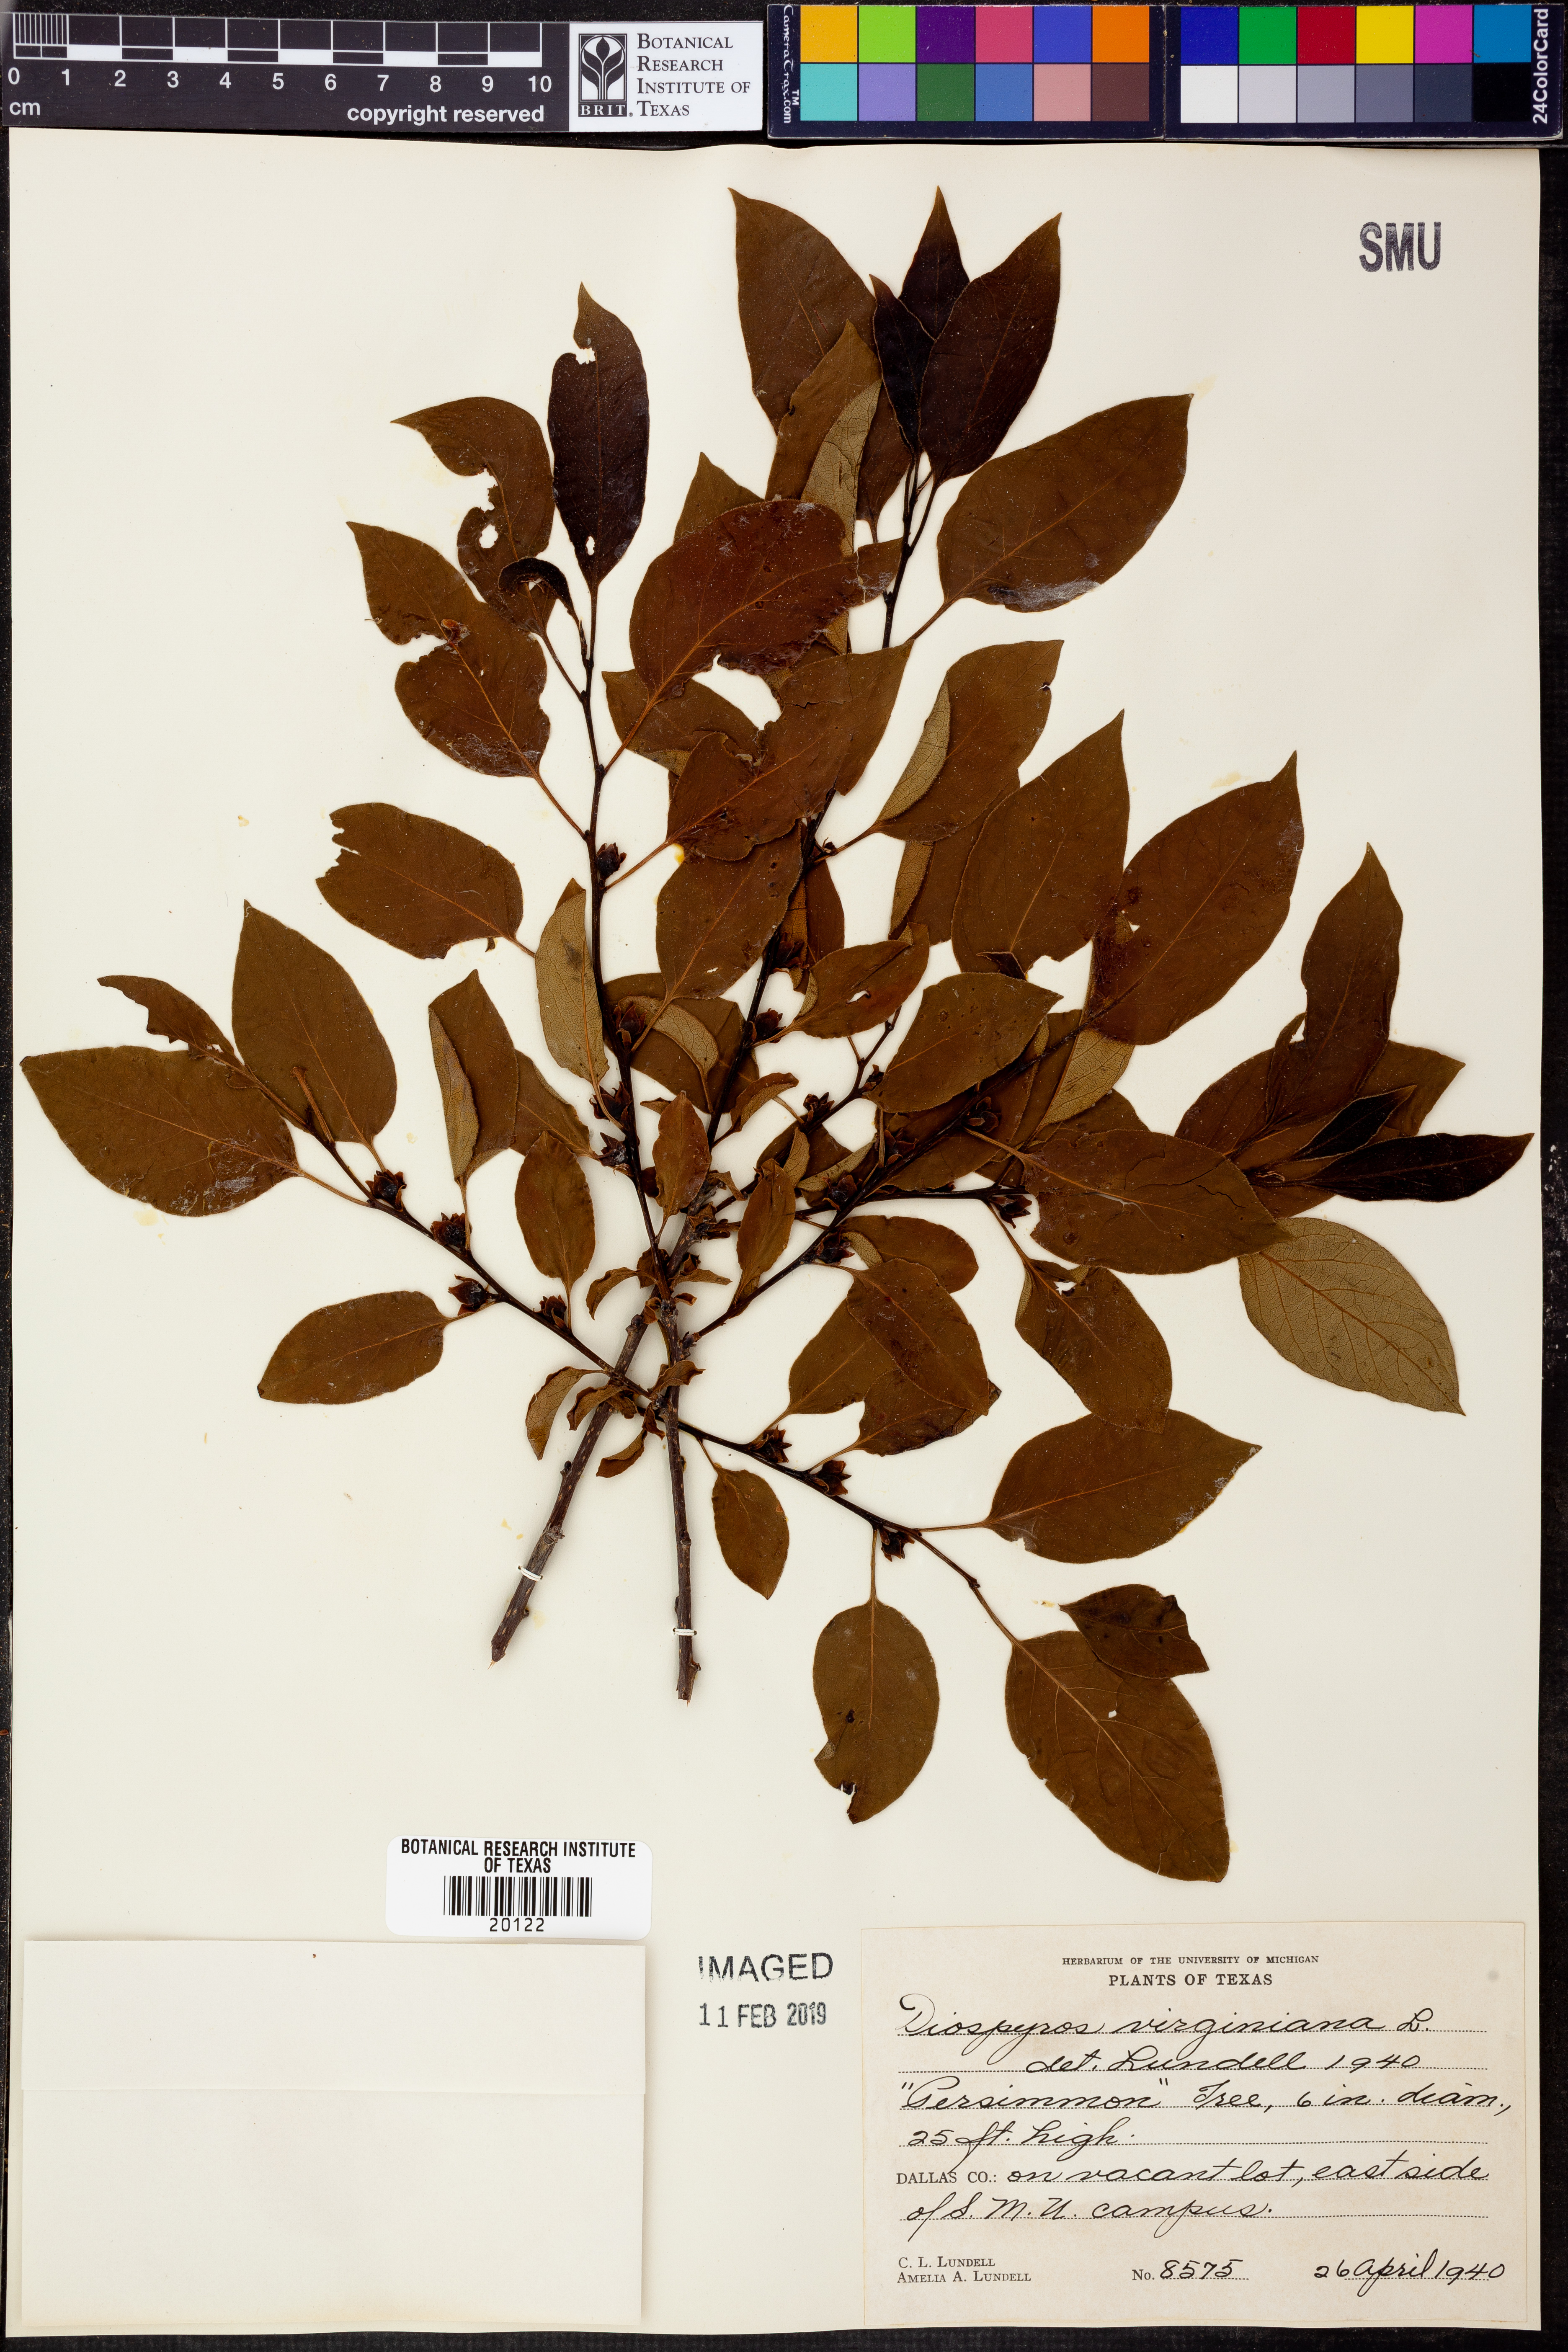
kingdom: Plantae
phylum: Tracheophyta
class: Magnoliopsida
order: Ericales
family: Ebenaceae
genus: Diospyros
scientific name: Diospyros virginiana
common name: Persimmon
